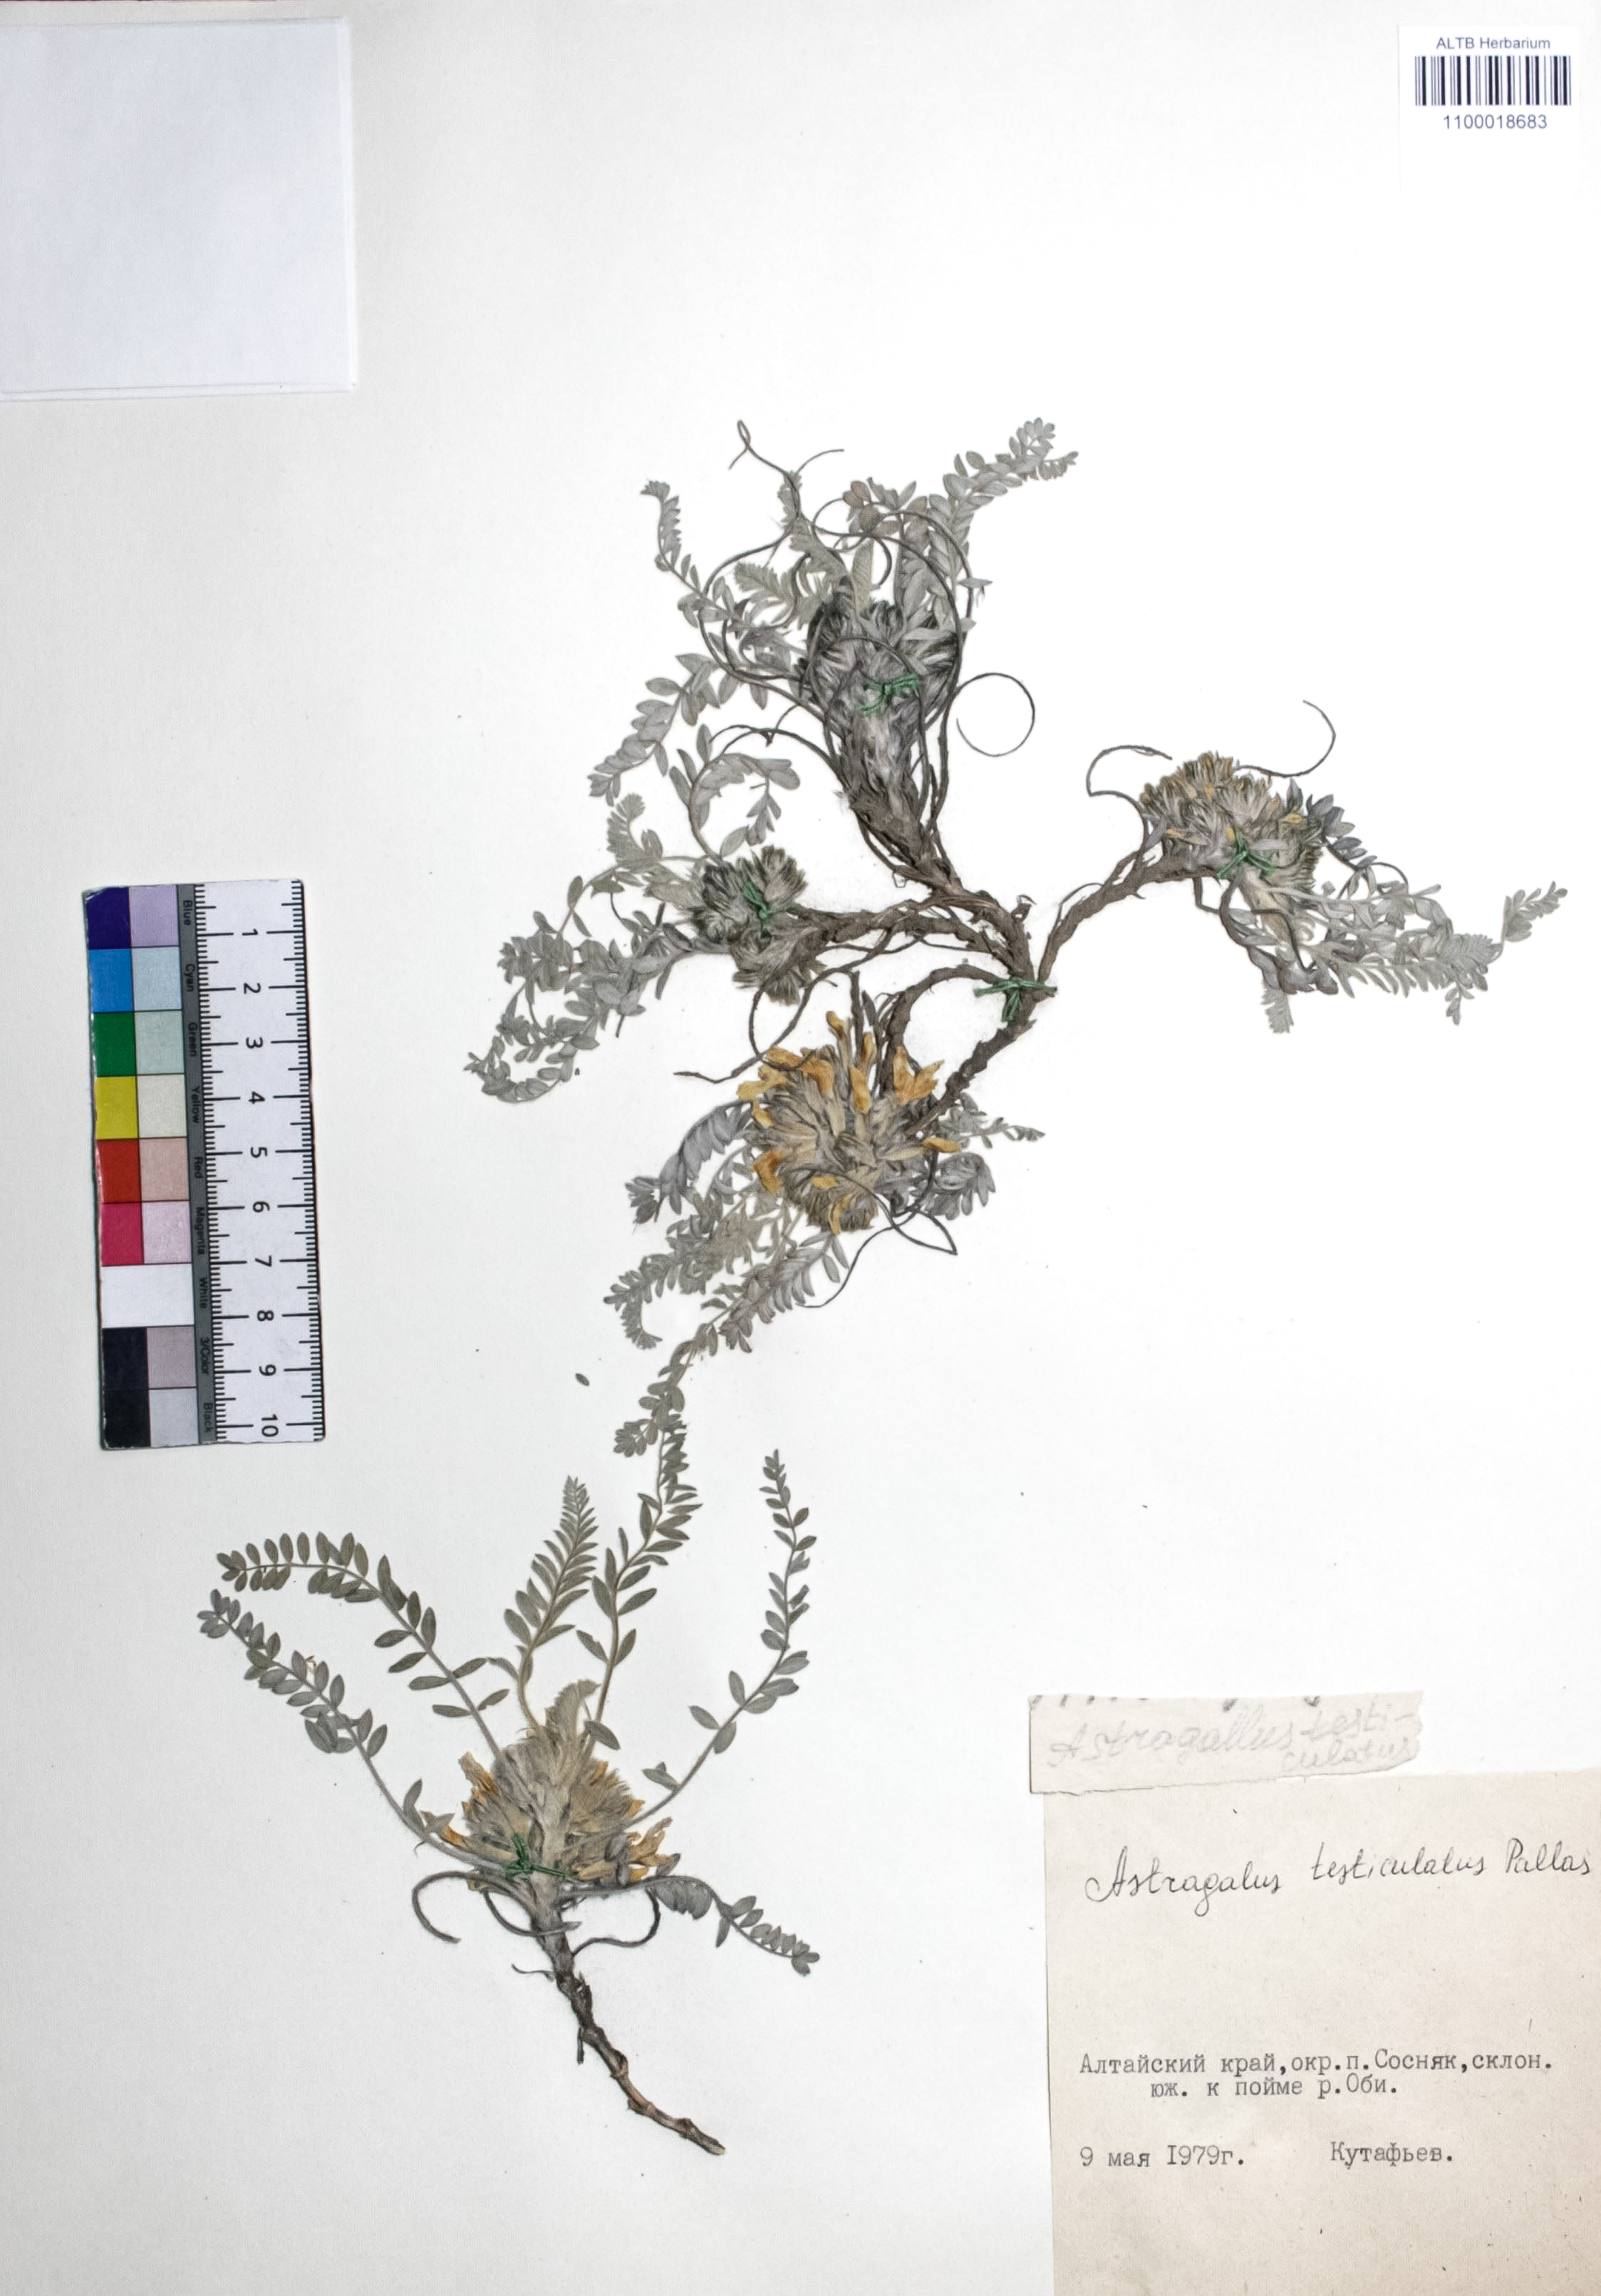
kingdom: Plantae
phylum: Tracheophyta
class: Magnoliopsida
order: Fabales
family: Fabaceae
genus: Astragalus
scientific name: Astragalus testiculatus
